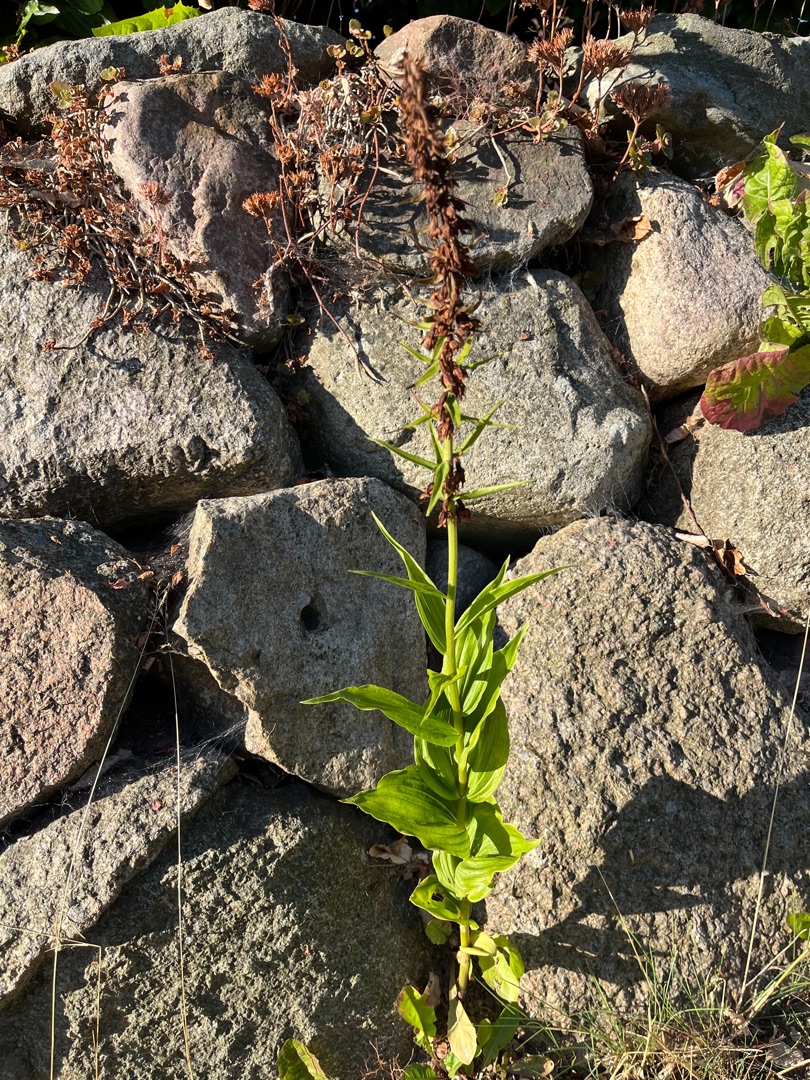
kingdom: Plantae
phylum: Tracheophyta
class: Liliopsida
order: Asparagales
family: Orchidaceae
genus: Epipactis
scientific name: Epipactis helleborine
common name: Skov-hullæbe
